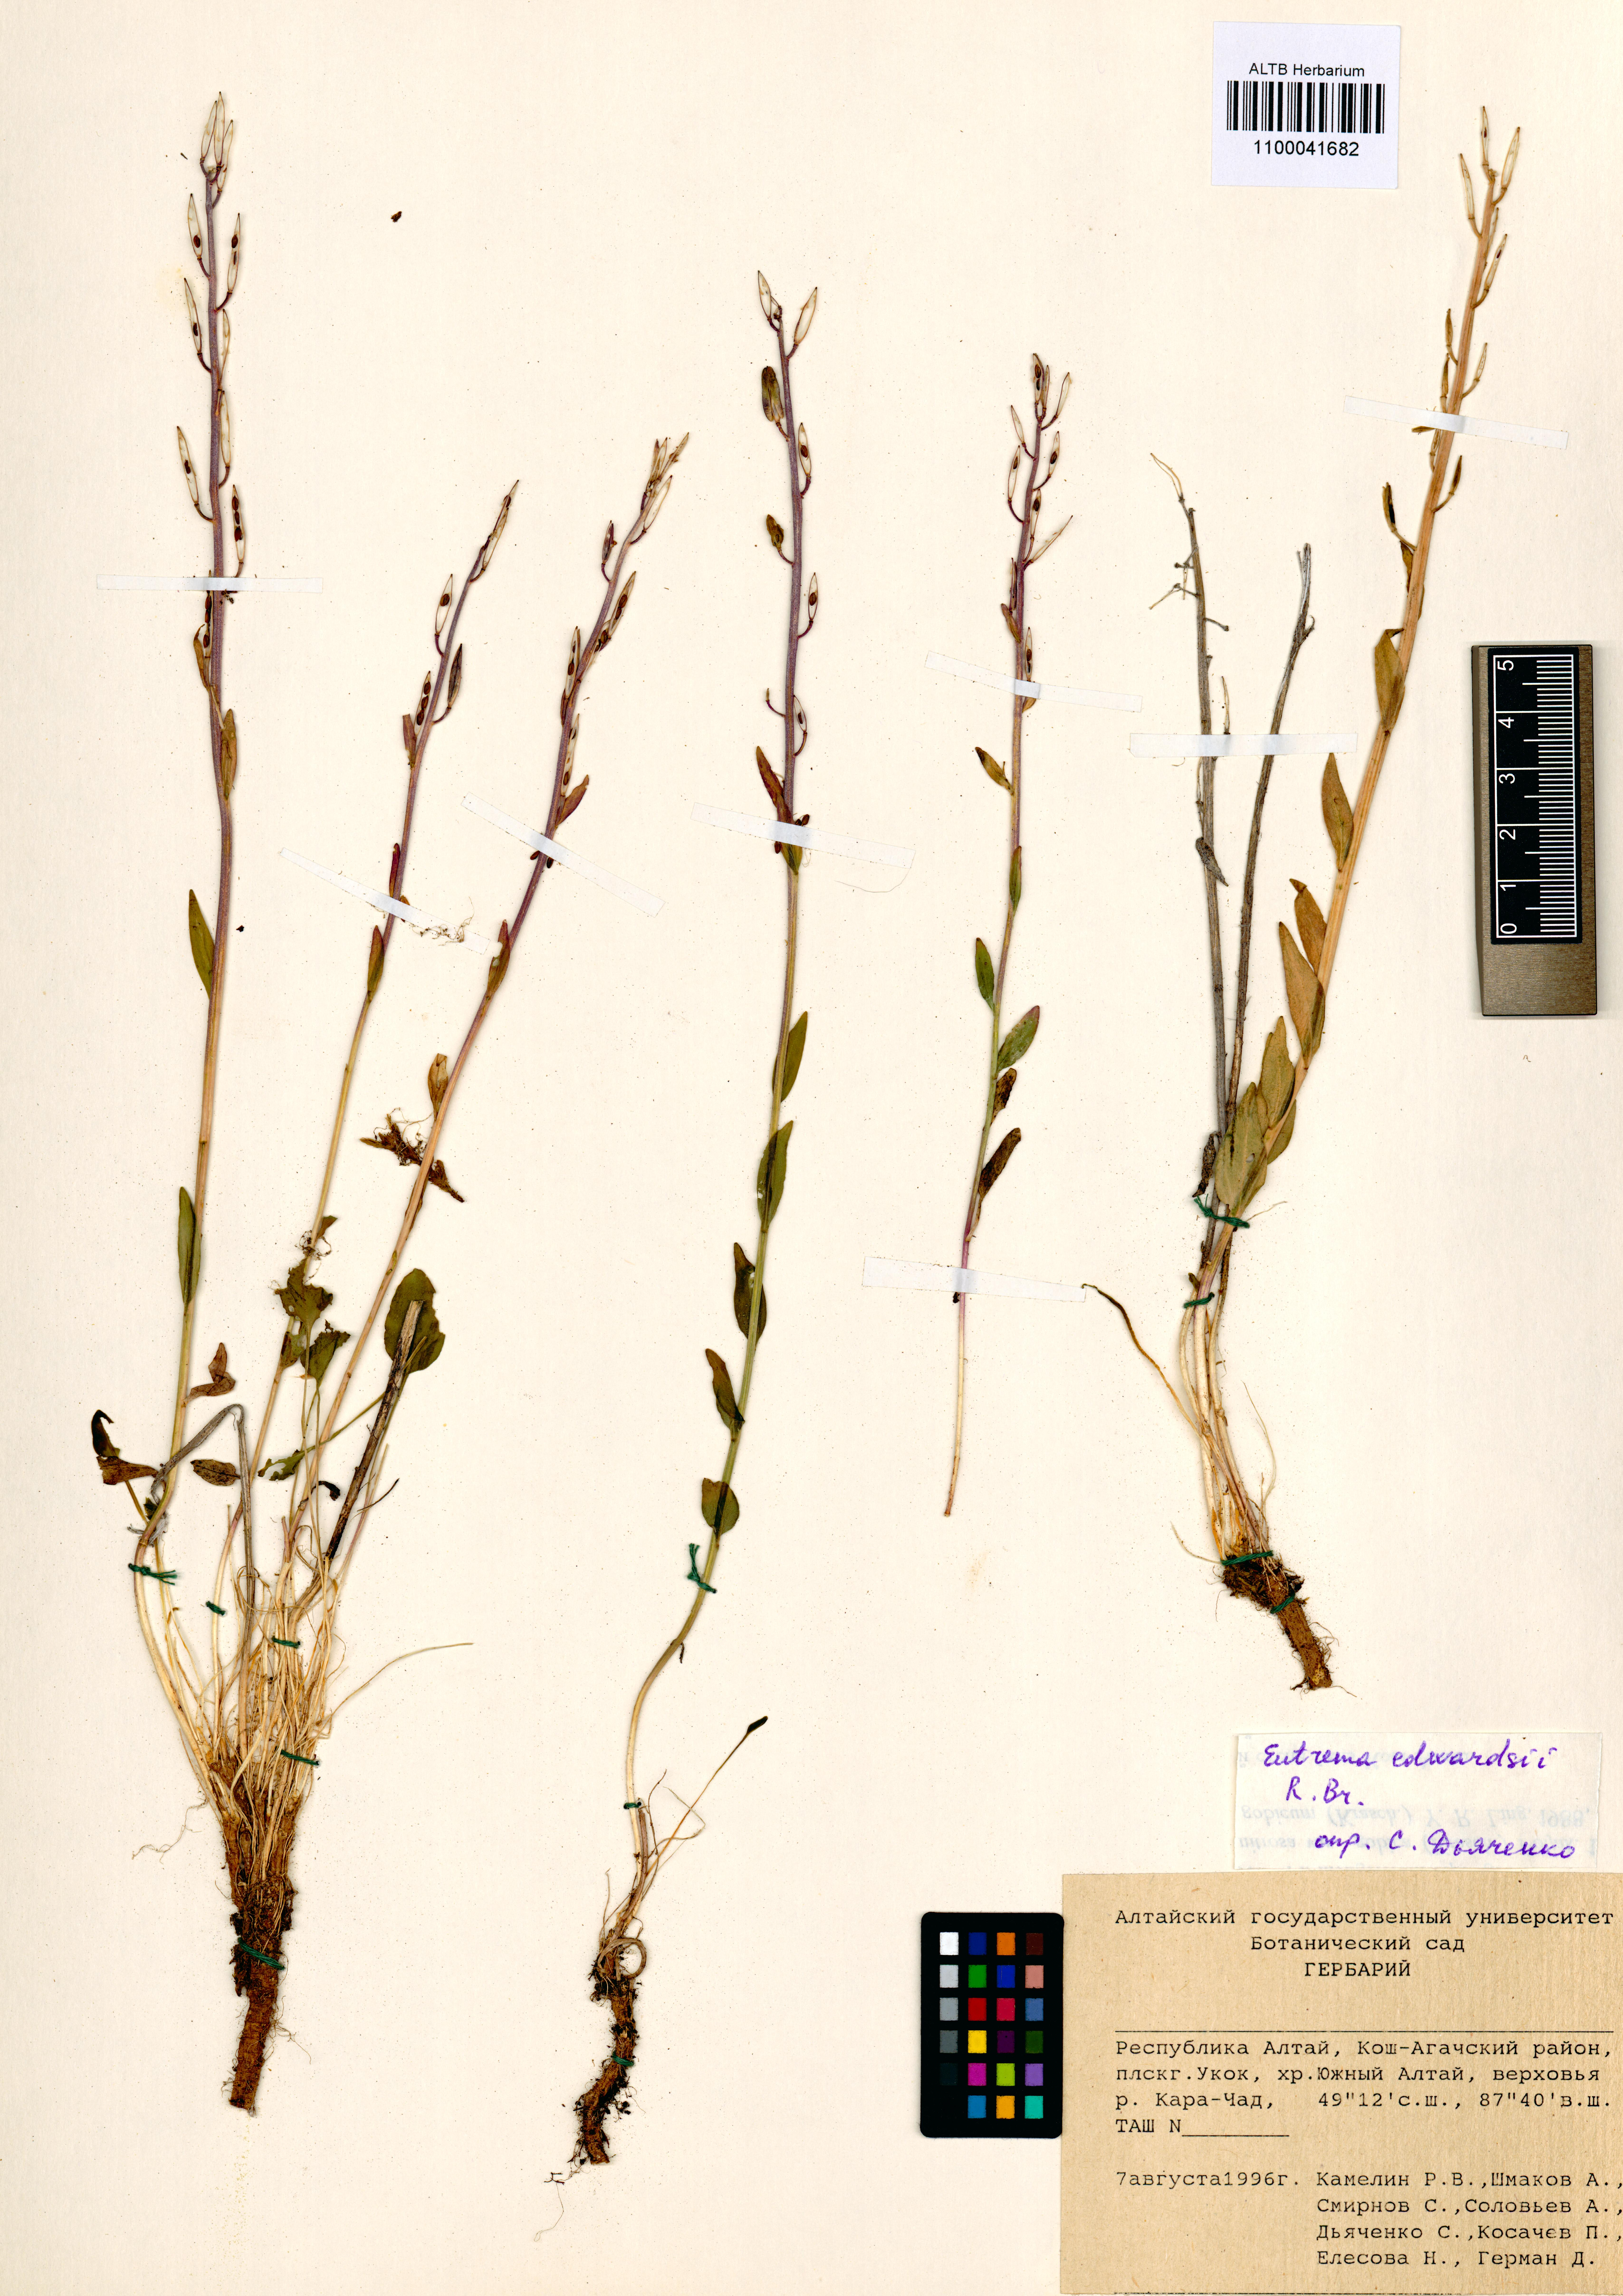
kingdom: Plantae
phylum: Tracheophyta
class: Magnoliopsida
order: Brassicales
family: Brassicaceae
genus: Eutrema
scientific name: Eutrema edwardsii
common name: Penland alpine fen mustard
